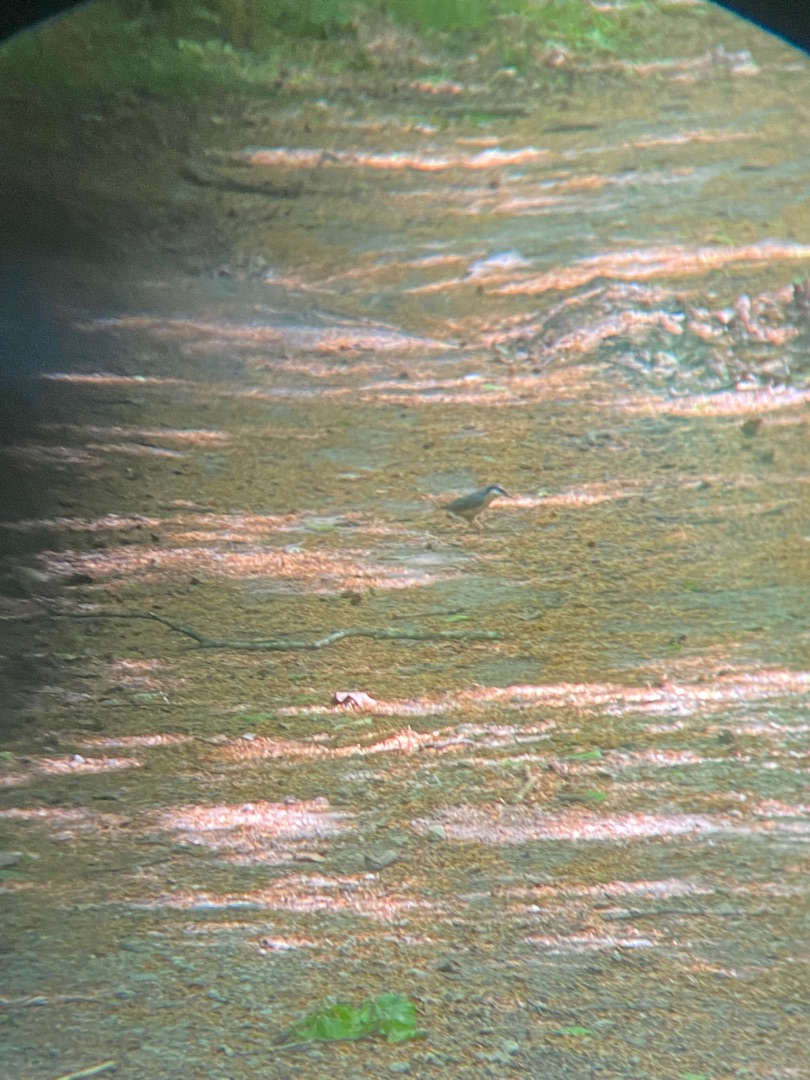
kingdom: Animalia
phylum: Chordata
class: Aves
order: Passeriformes
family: Sittidae
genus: Sitta
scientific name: Sitta europaea
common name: Spætmejse
